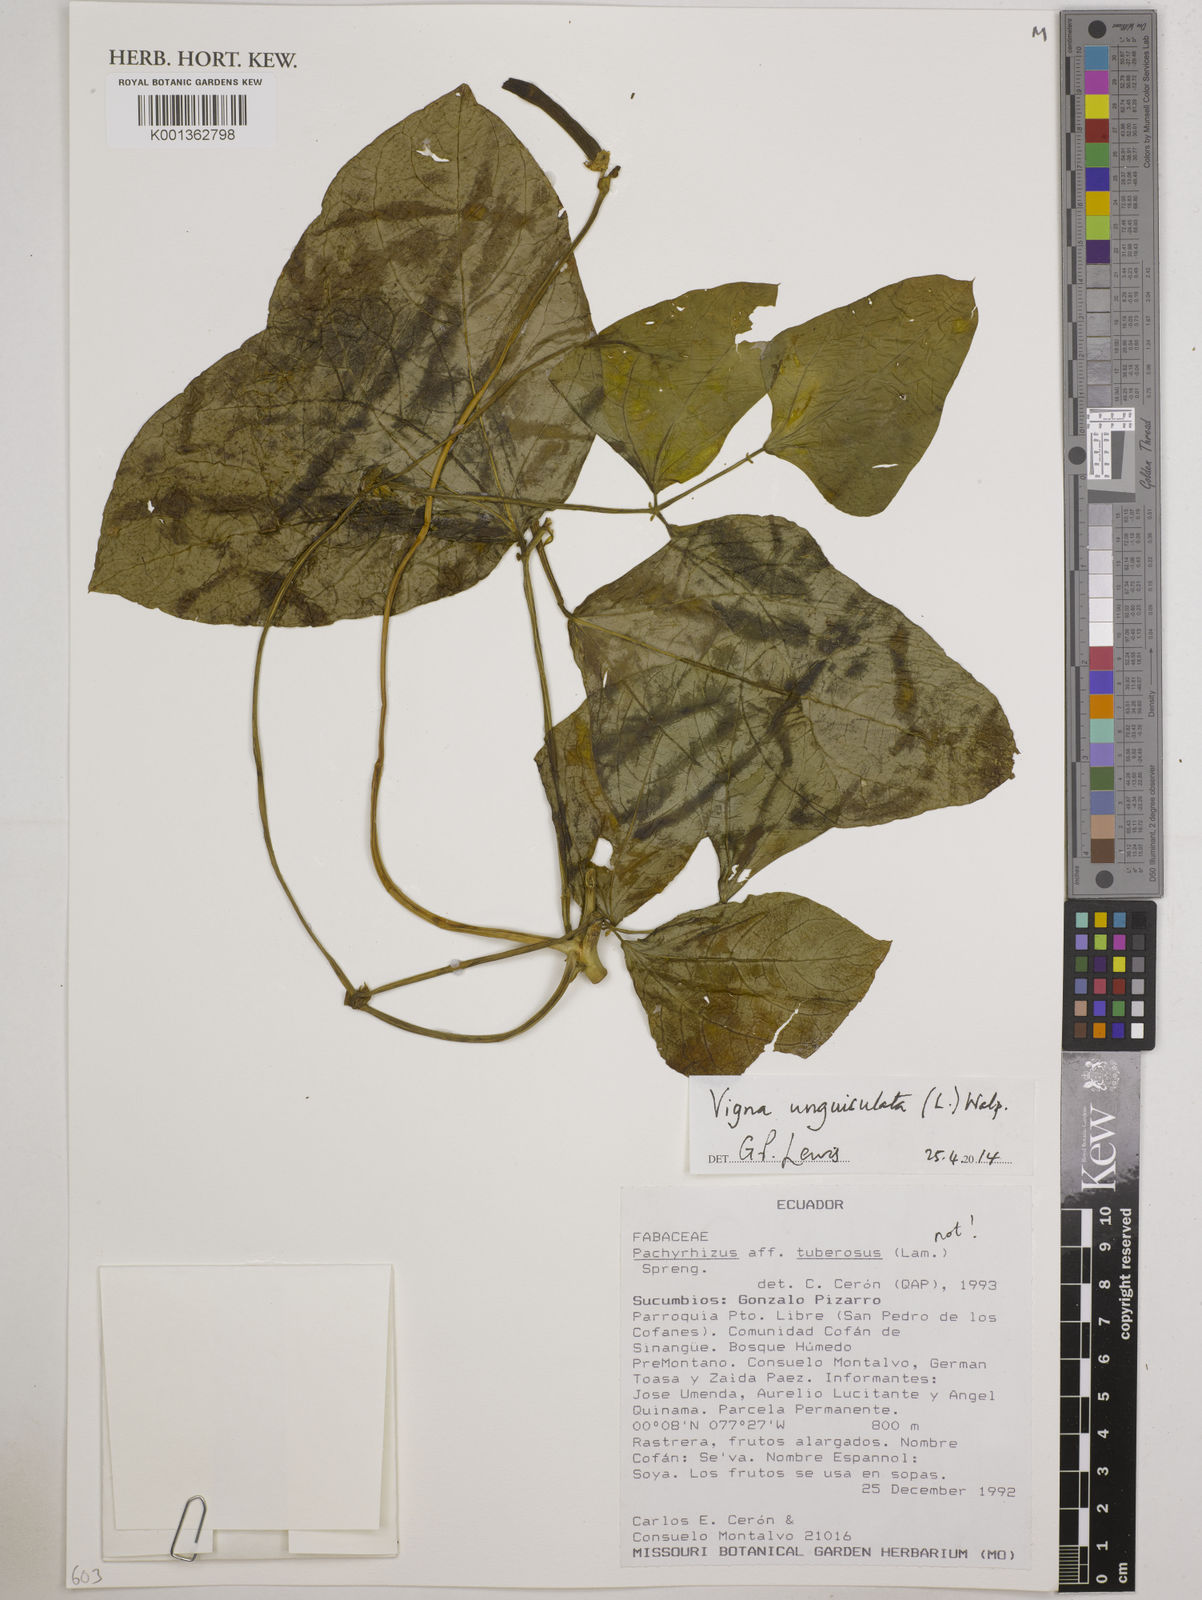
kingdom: Plantae
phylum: Tracheophyta
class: Magnoliopsida
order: Fabales
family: Fabaceae
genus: Vigna
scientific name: Vigna unguiculata
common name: Cowpea
